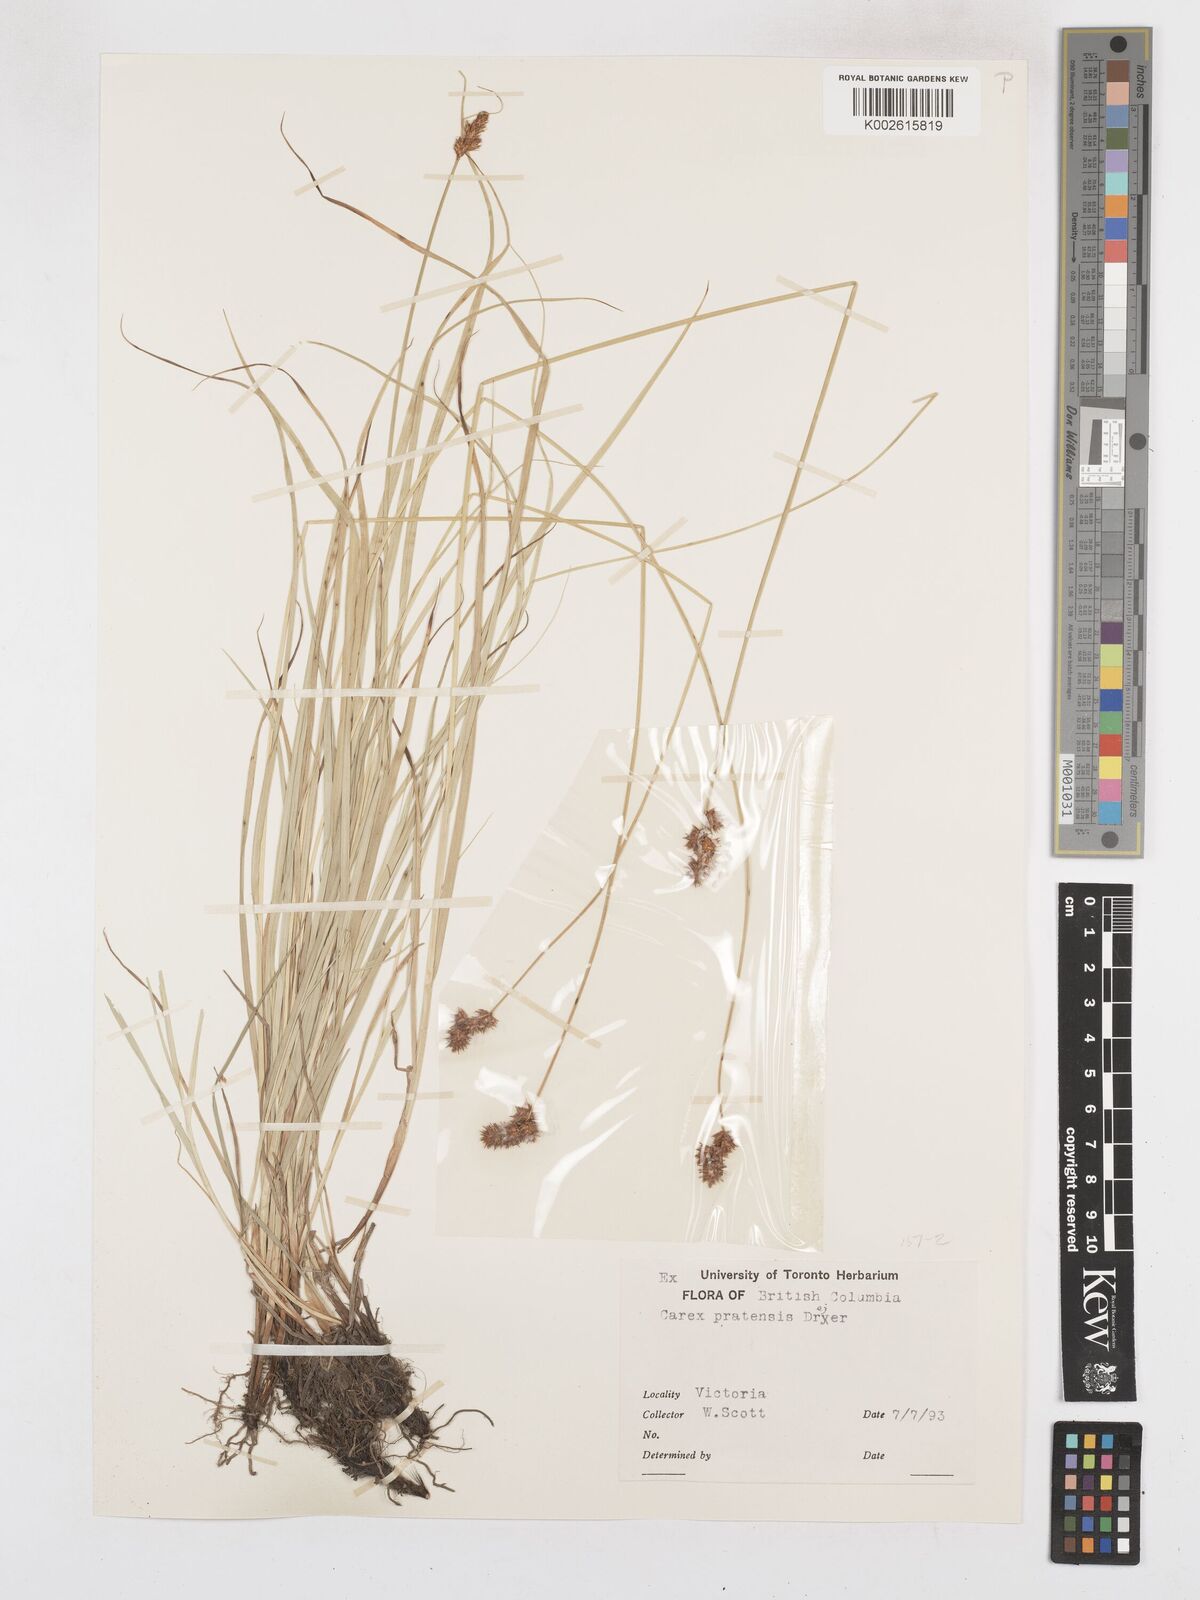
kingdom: Plantae
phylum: Tracheophyta
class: Liliopsida
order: Poales
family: Cyperaceae
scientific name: Cyperaceae
